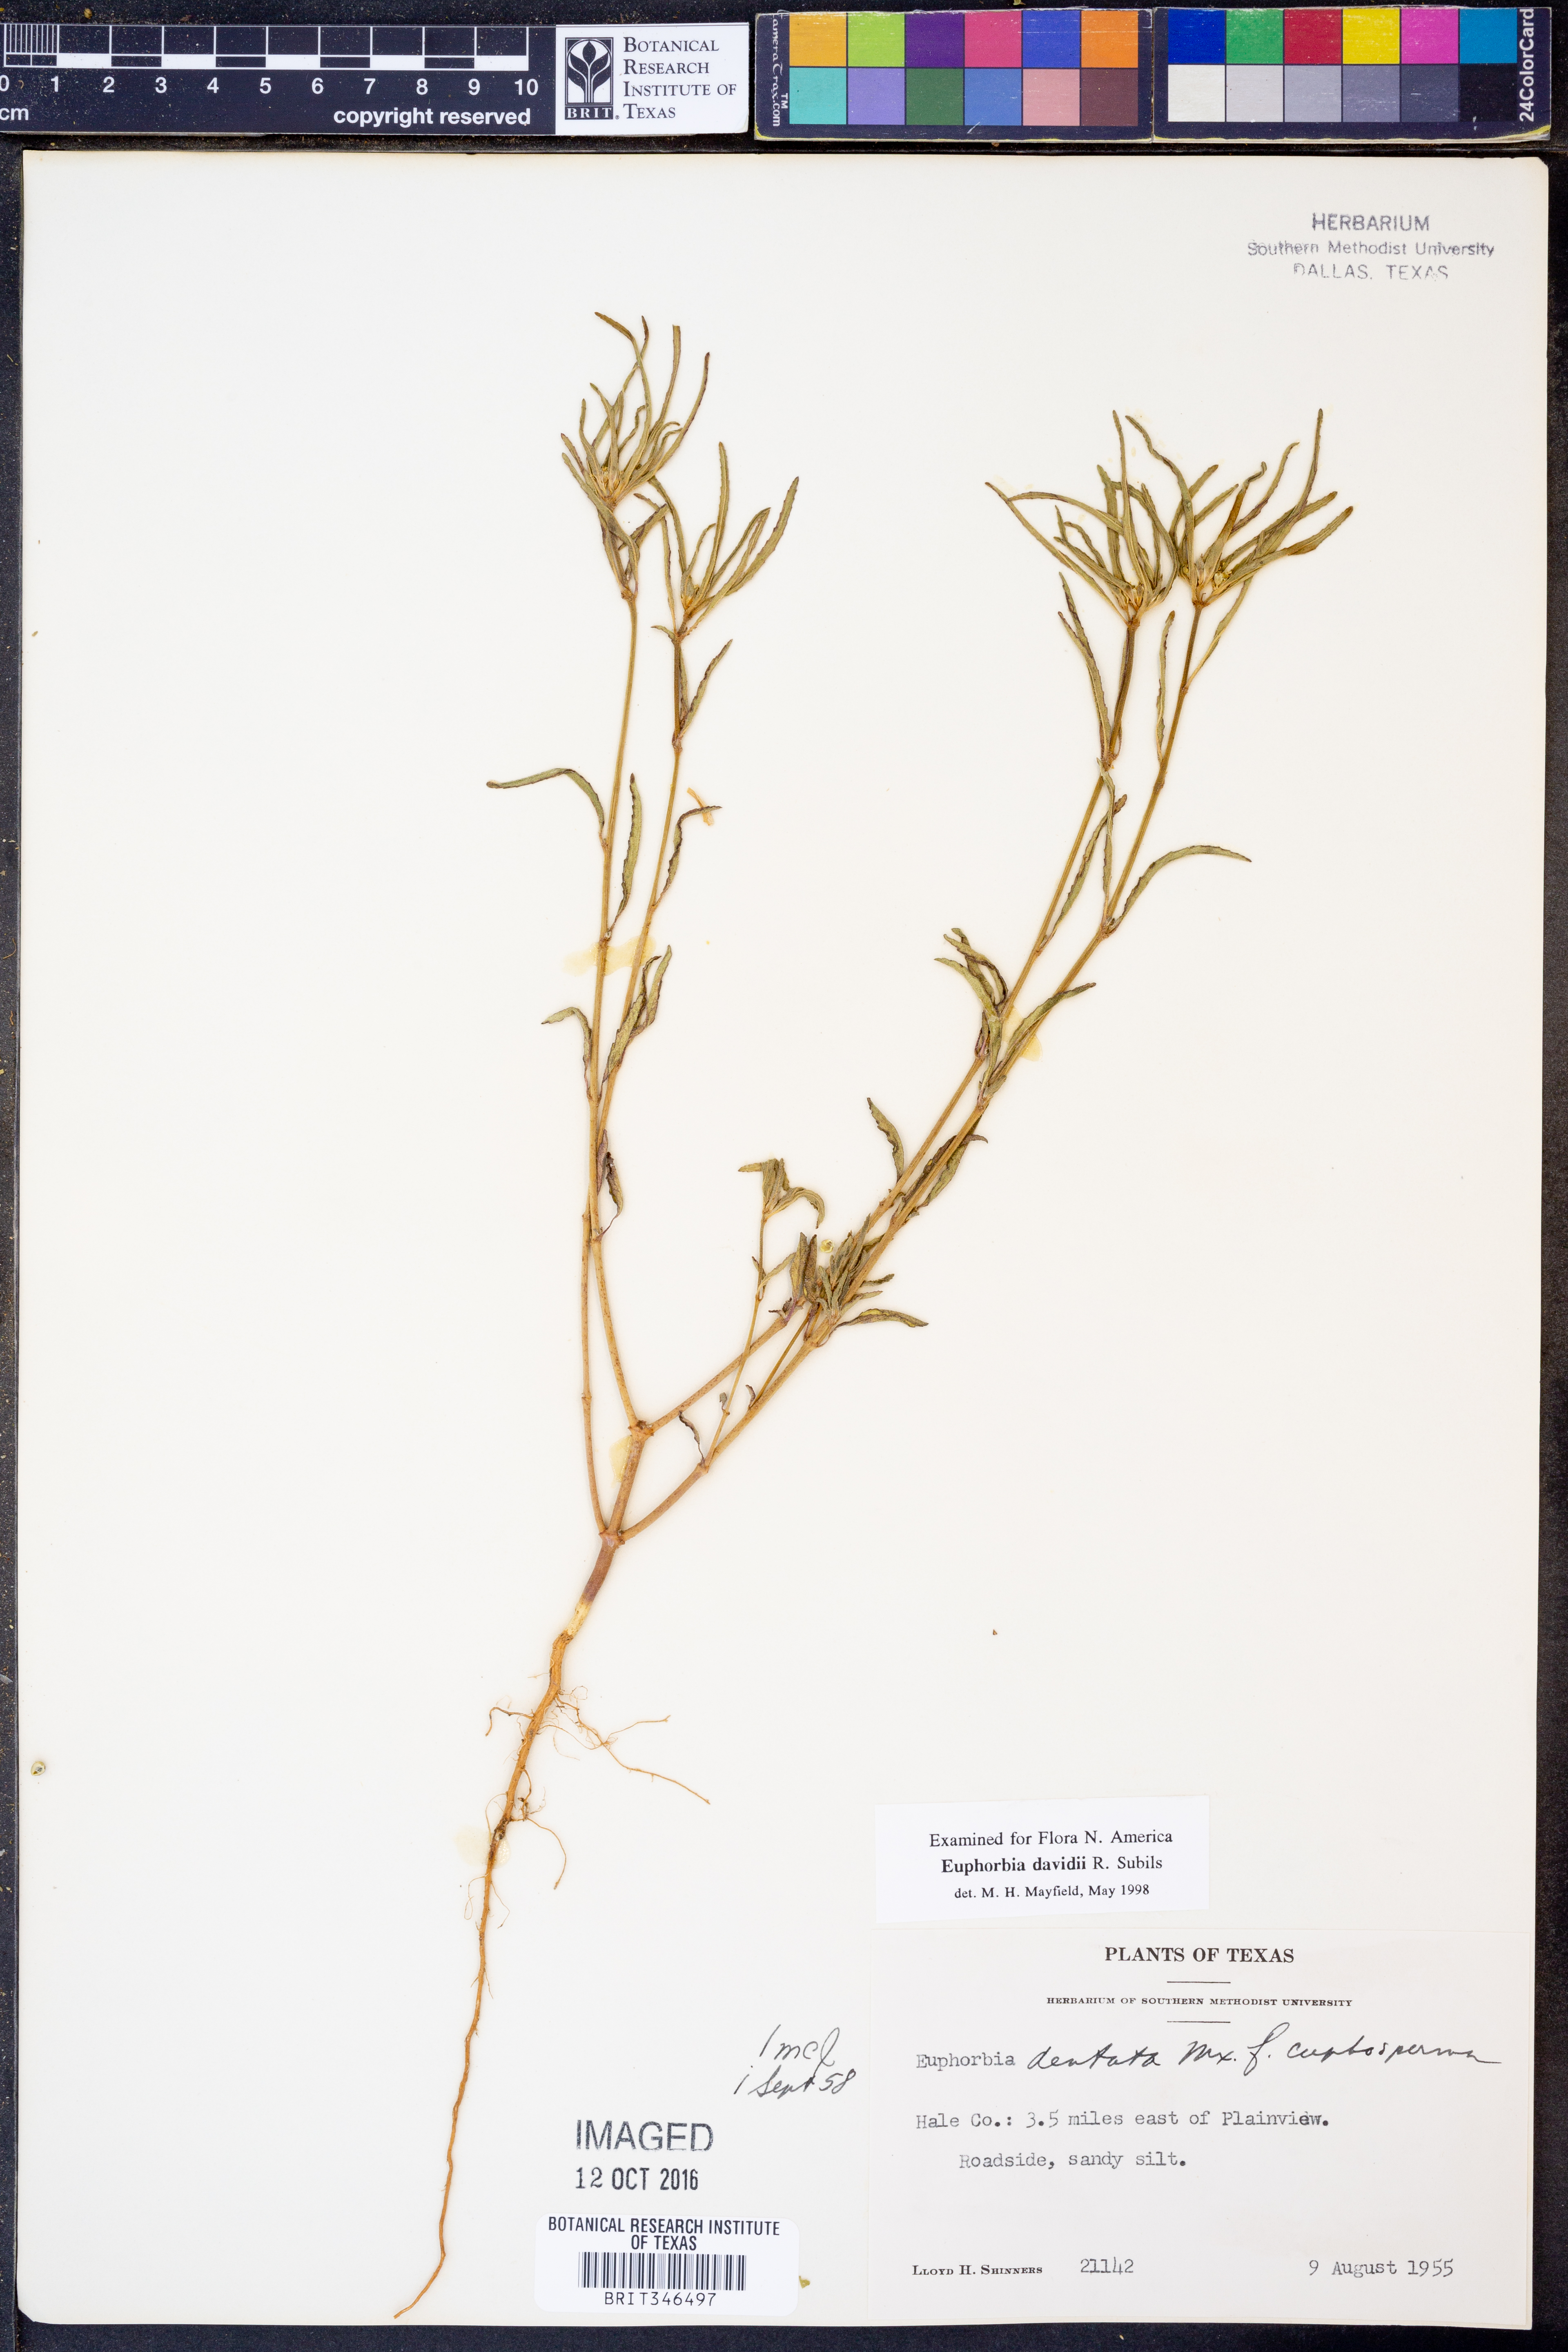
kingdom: Plantae
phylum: Tracheophyta
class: Magnoliopsida
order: Malpighiales
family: Euphorbiaceae
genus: Euphorbia
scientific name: Euphorbia davidii
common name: David's spurge
